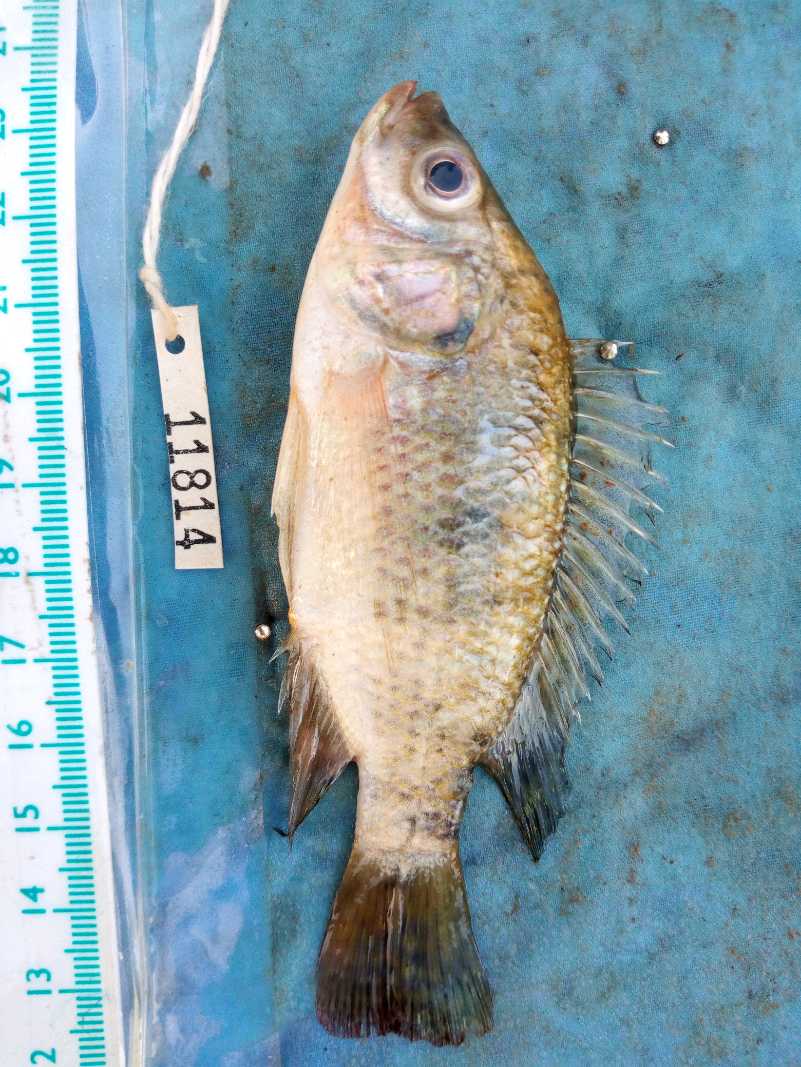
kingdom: Animalia
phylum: Chordata
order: Perciformes
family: Cichlidae
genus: Oreochromis
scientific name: Oreochromis spilurus
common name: Sabaki tilapia
